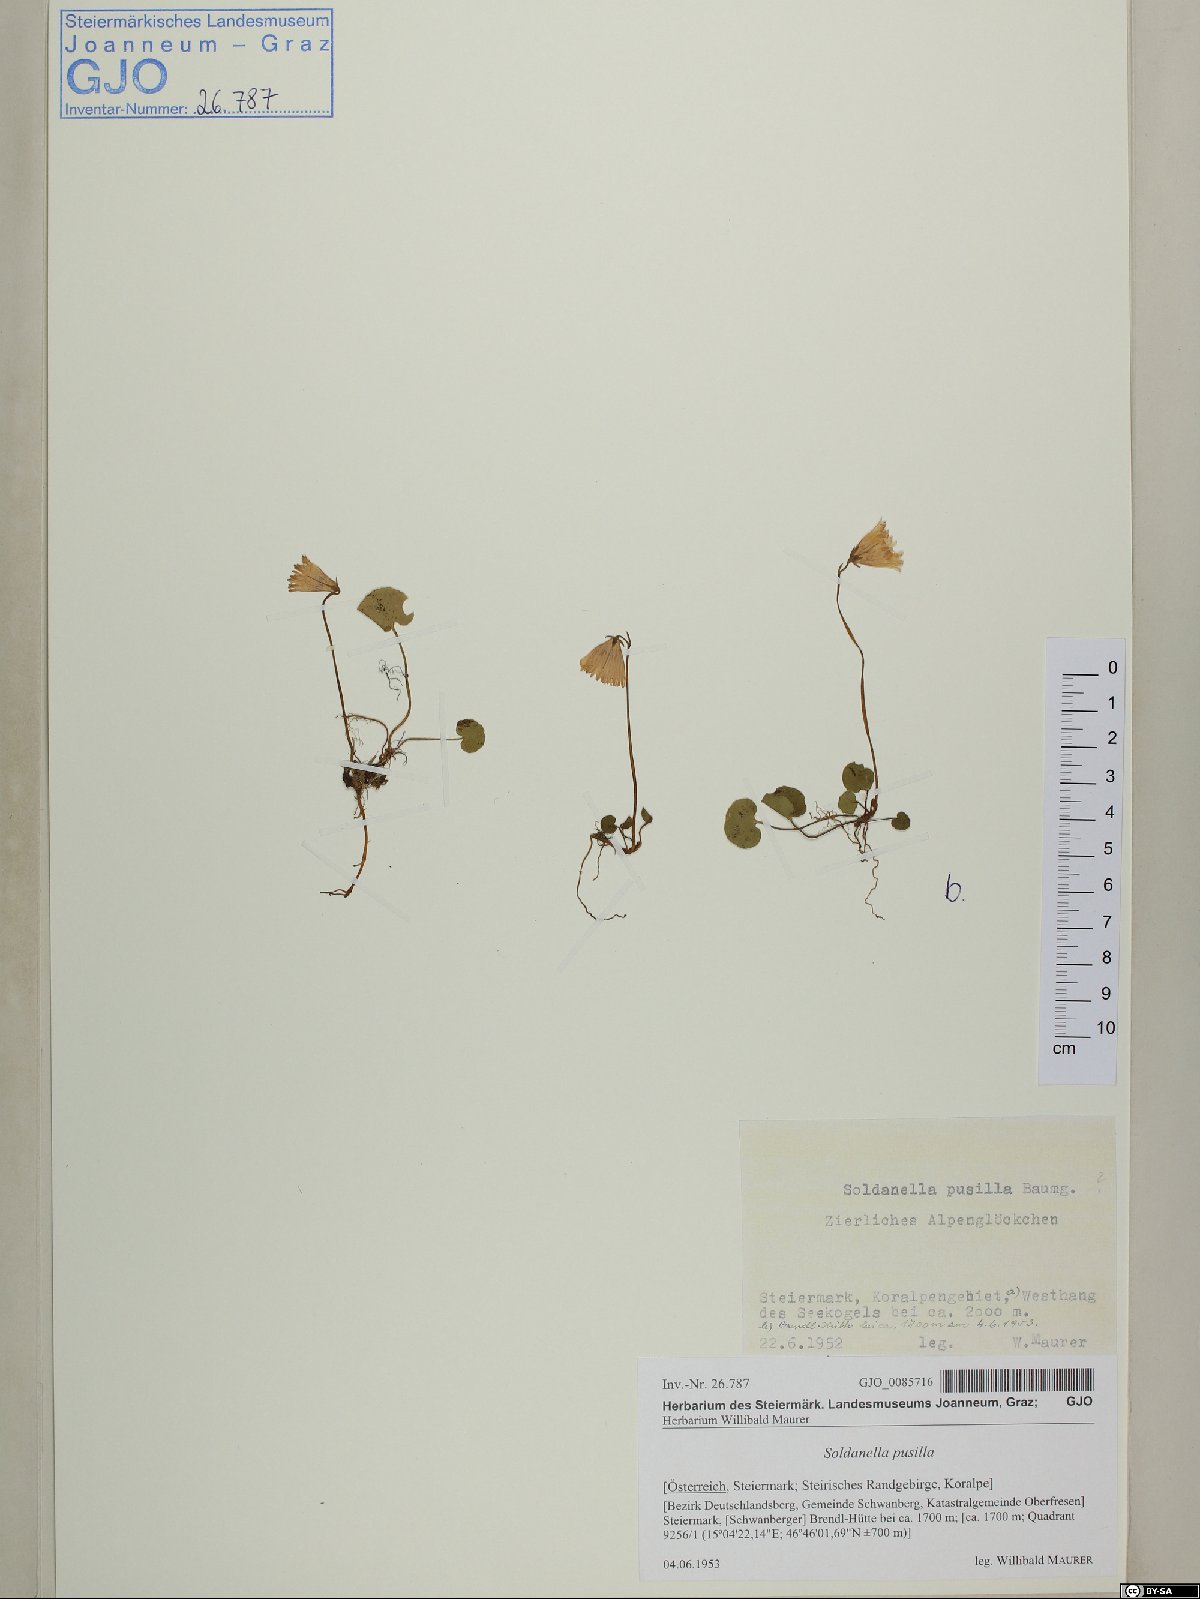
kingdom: Plantae
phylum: Tracheophyta
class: Magnoliopsida
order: Ericales
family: Primulaceae
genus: Soldanella
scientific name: Soldanella pusilla
